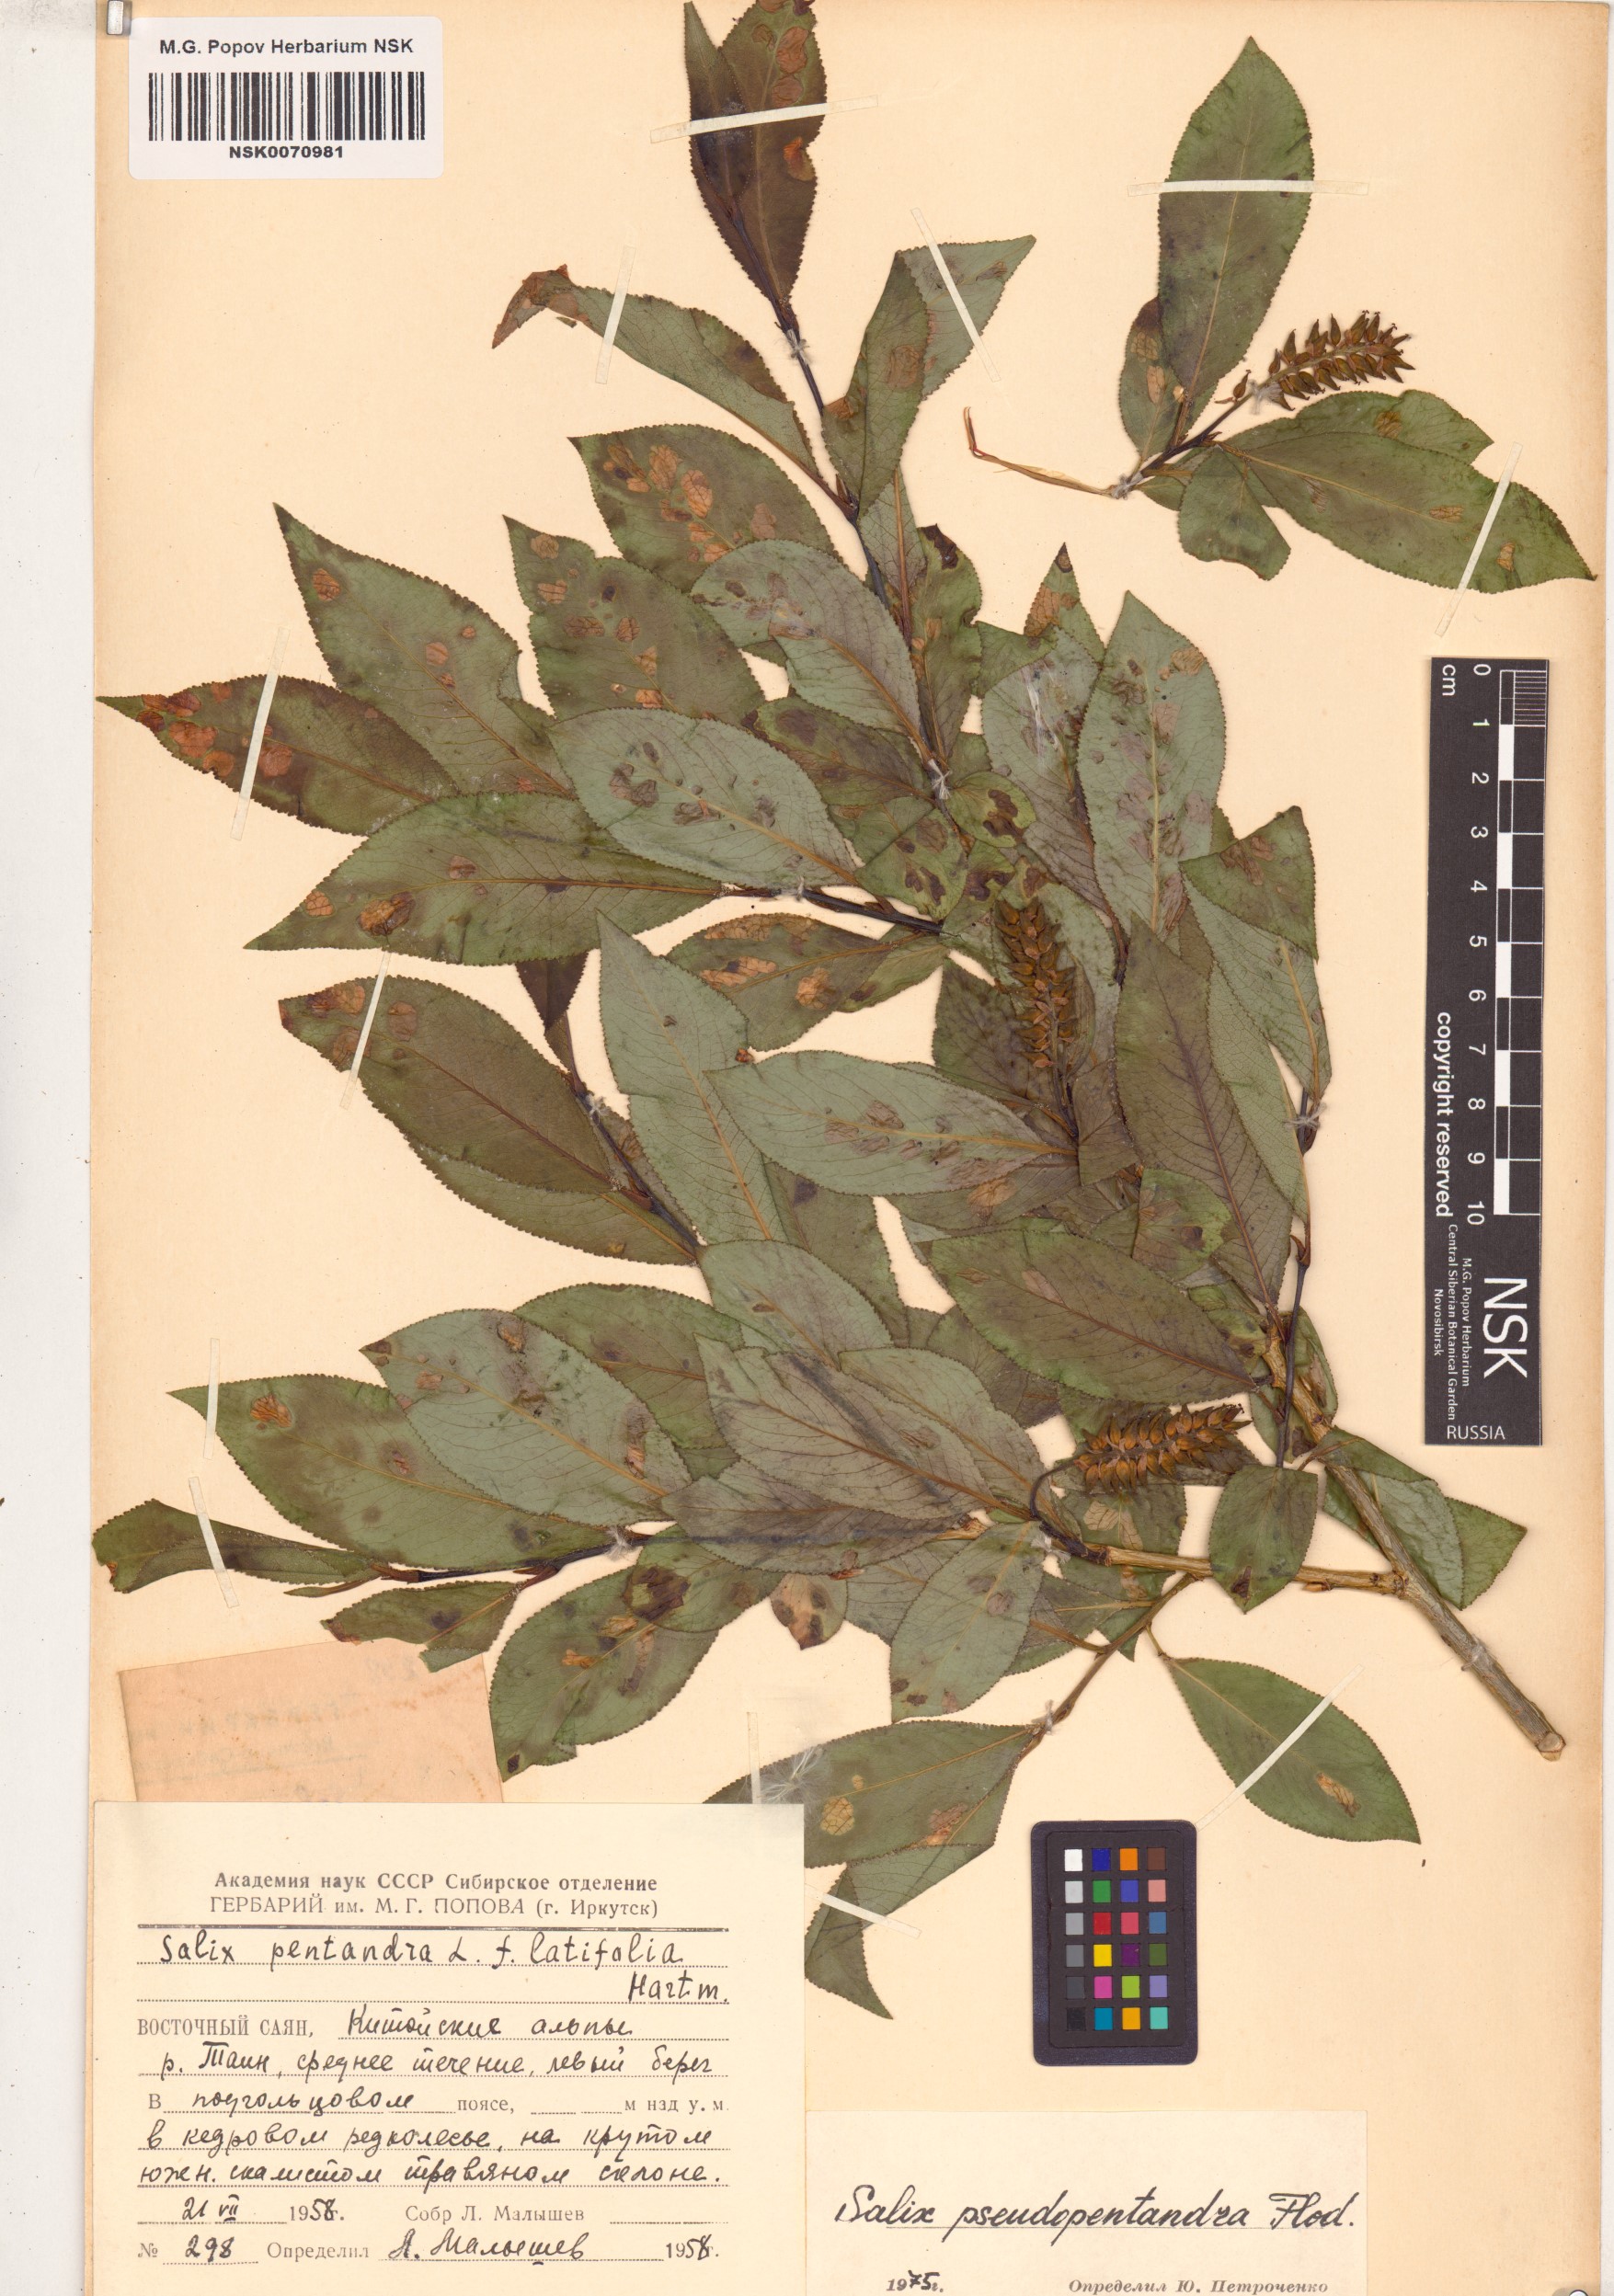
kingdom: Plantae
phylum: Tracheophyta
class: Magnoliopsida
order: Malpighiales
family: Salicaceae
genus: Salix
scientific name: Salix pseudopentandra
